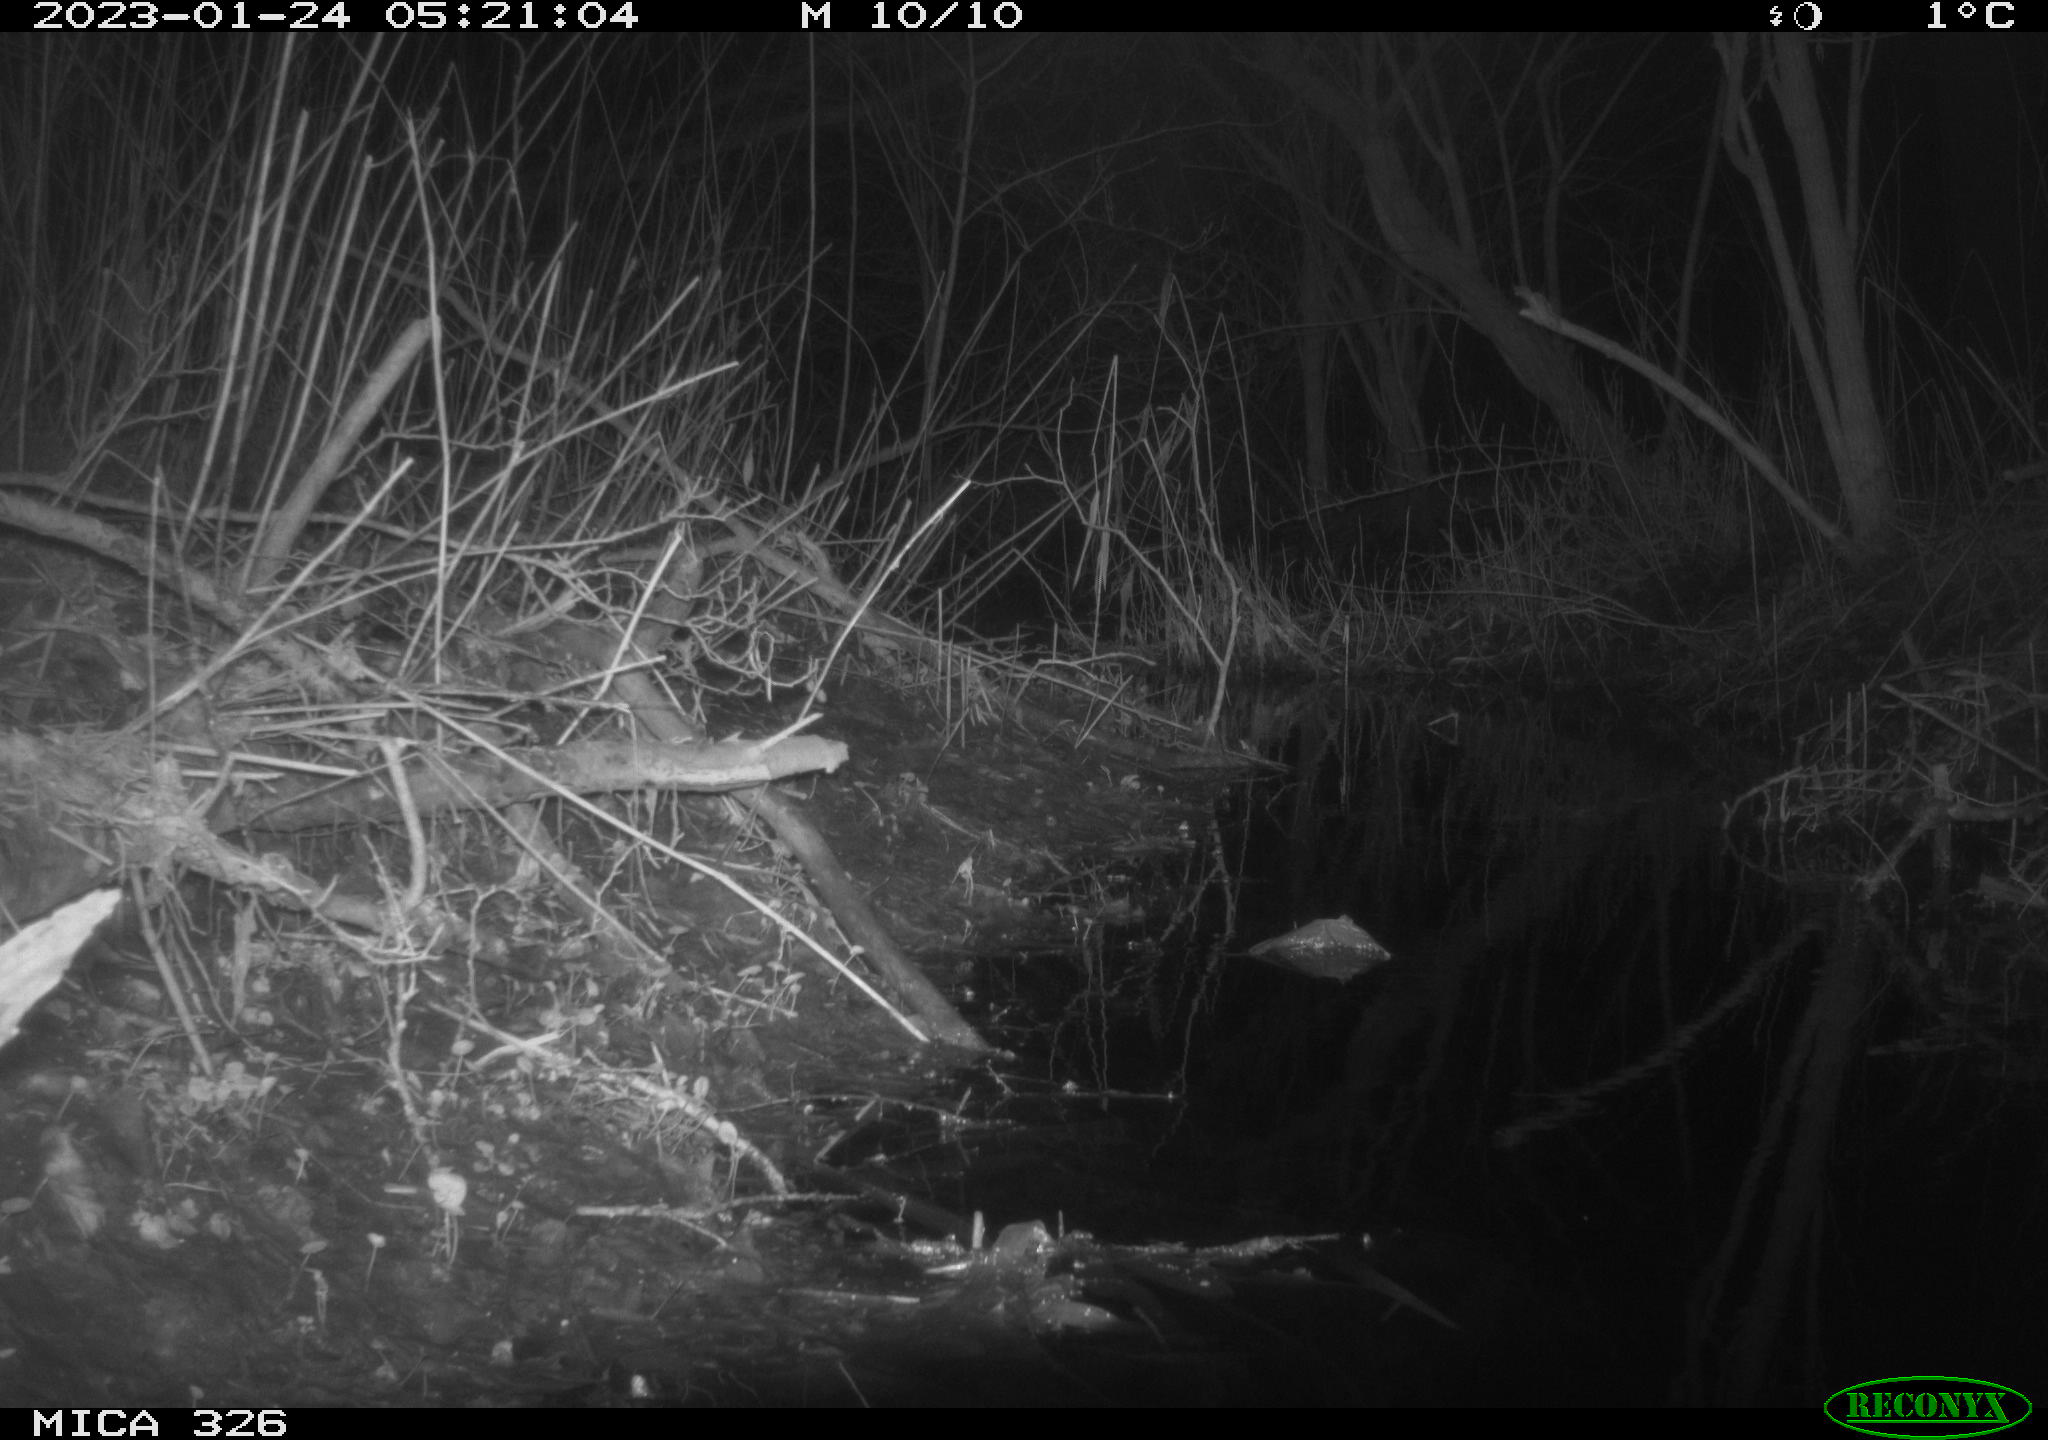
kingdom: Animalia
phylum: Chordata
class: Mammalia
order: Rodentia
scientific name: Rodentia
